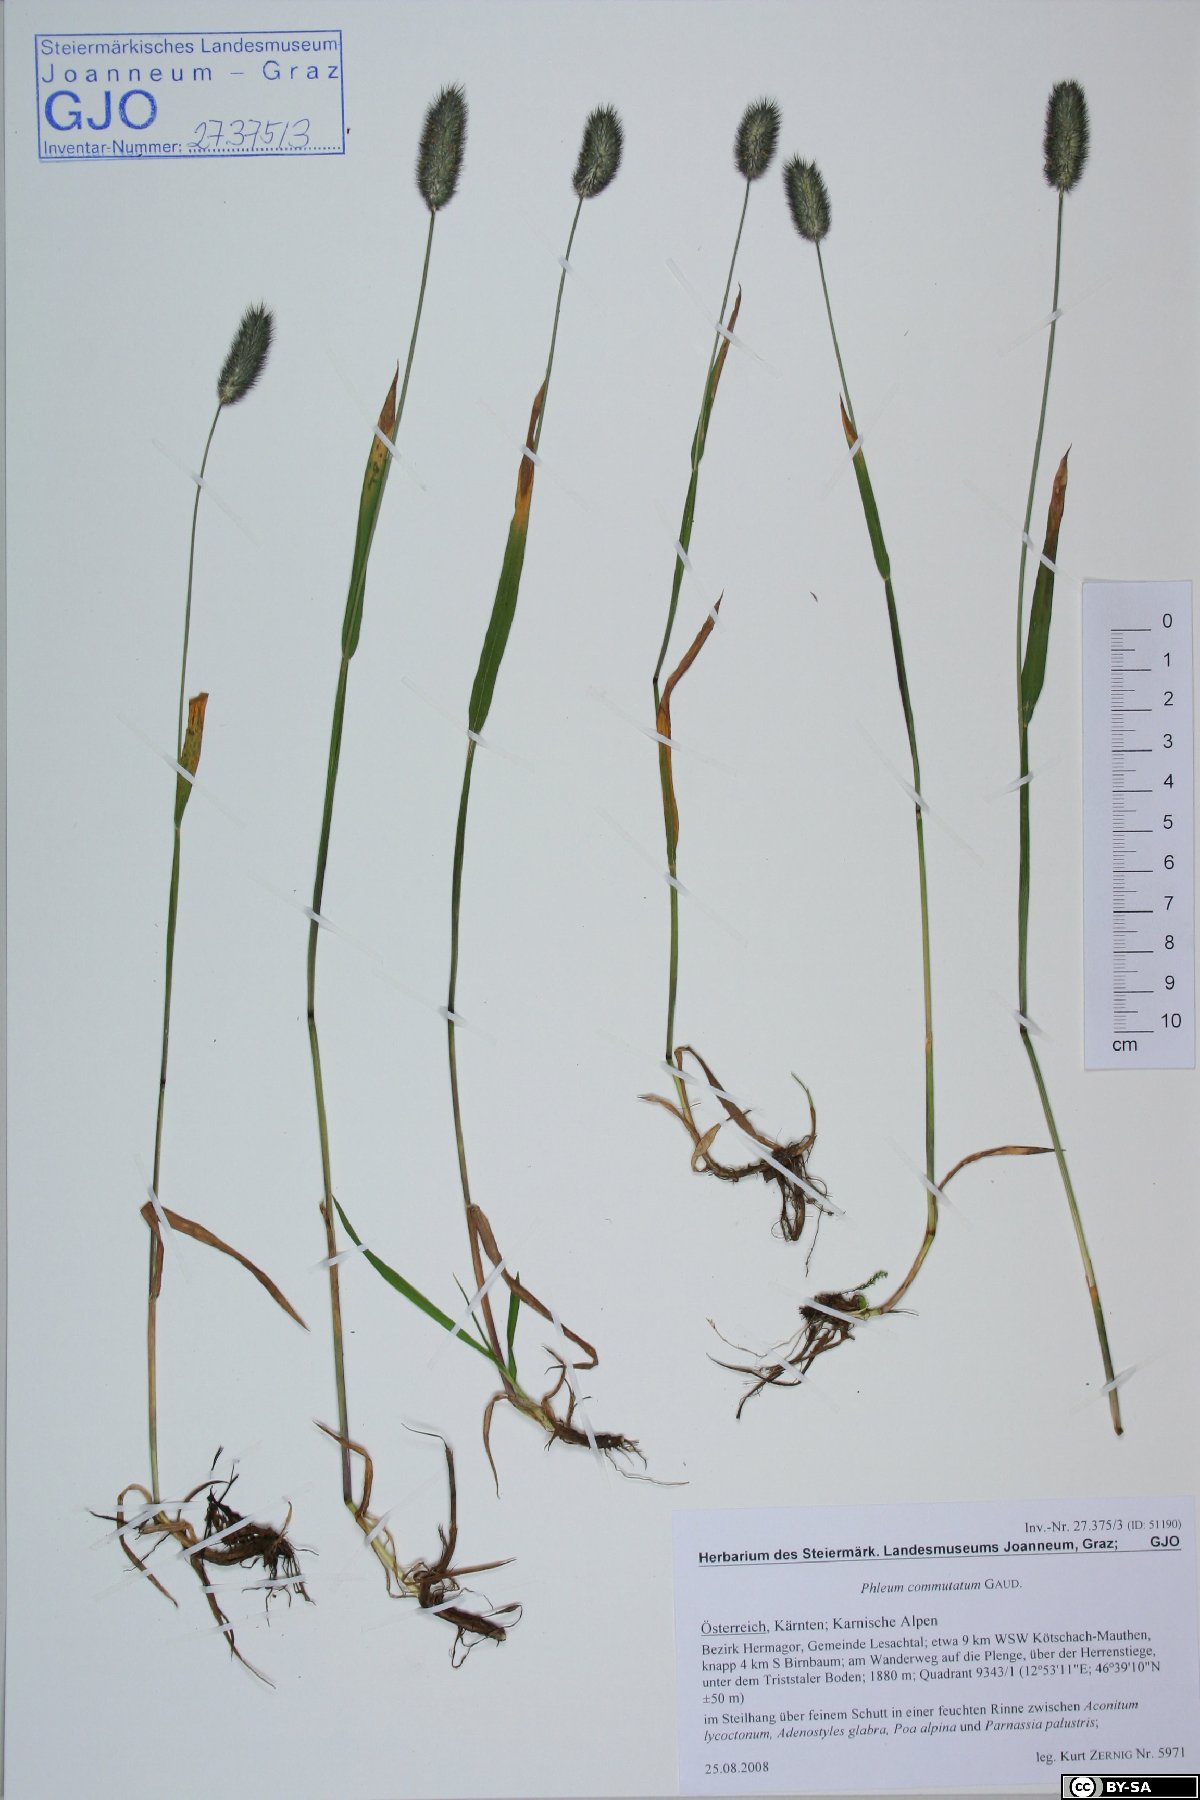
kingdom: Plantae
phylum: Tracheophyta
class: Liliopsida
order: Poales
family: Poaceae
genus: Phleum
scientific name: Phleum alpinum
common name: Alpine cat's-tail
